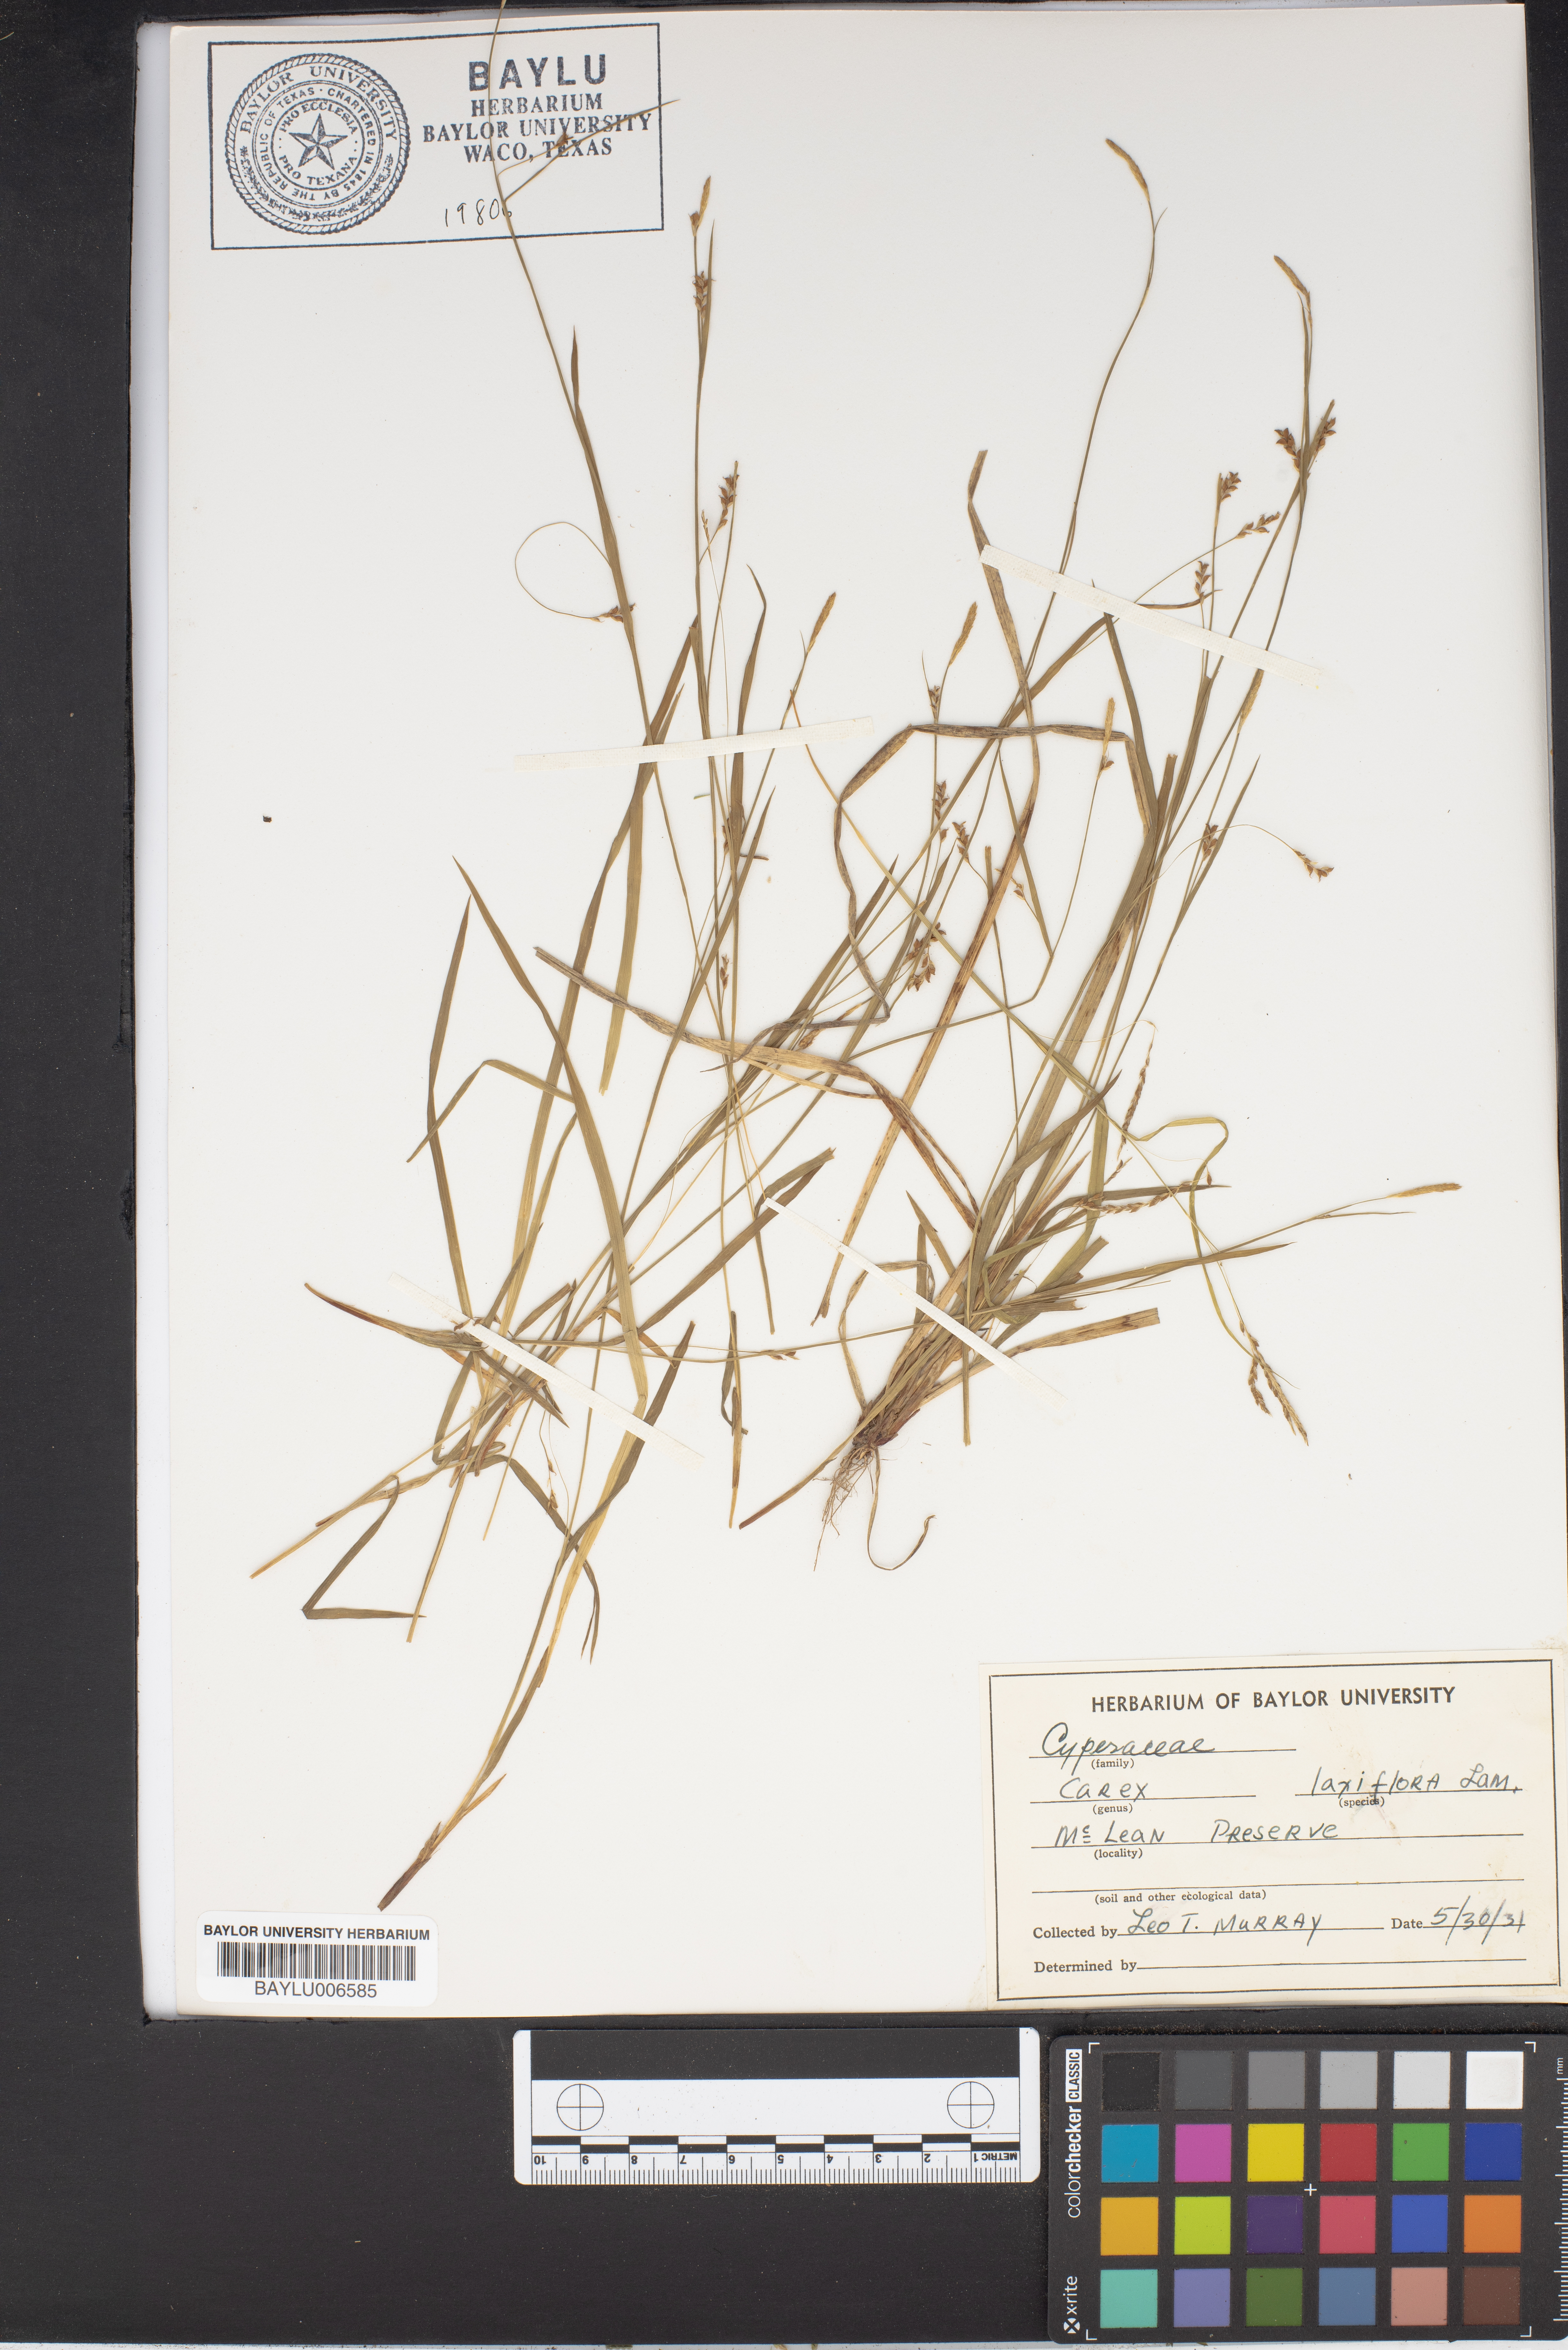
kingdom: Plantae
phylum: Tracheophyta
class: Liliopsida
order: Poales
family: Cyperaceae
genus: Carex
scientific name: Carex laxiflora
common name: Beech wood sedge
